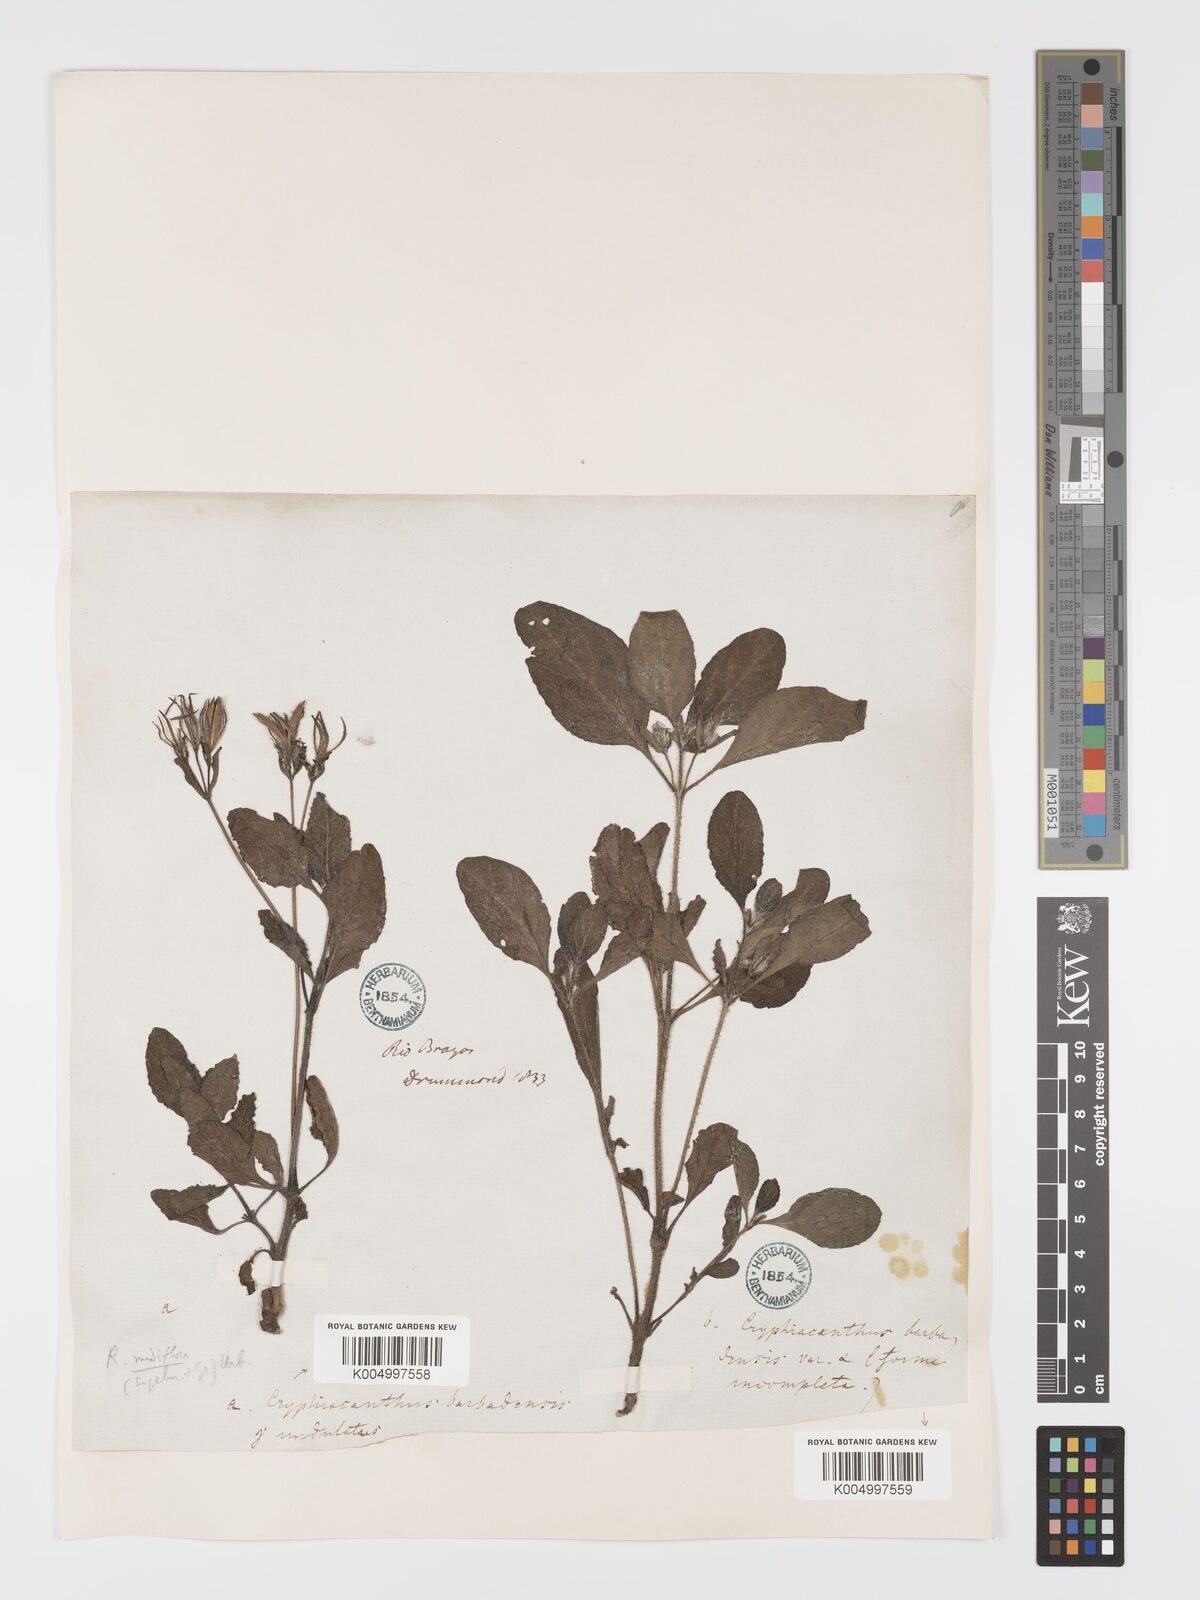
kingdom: Plantae
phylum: Tracheophyta
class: Magnoliopsida
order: Lamiales
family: Acanthaceae
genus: Ruellia
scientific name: Ruellia tuberosa
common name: Devil's bit
